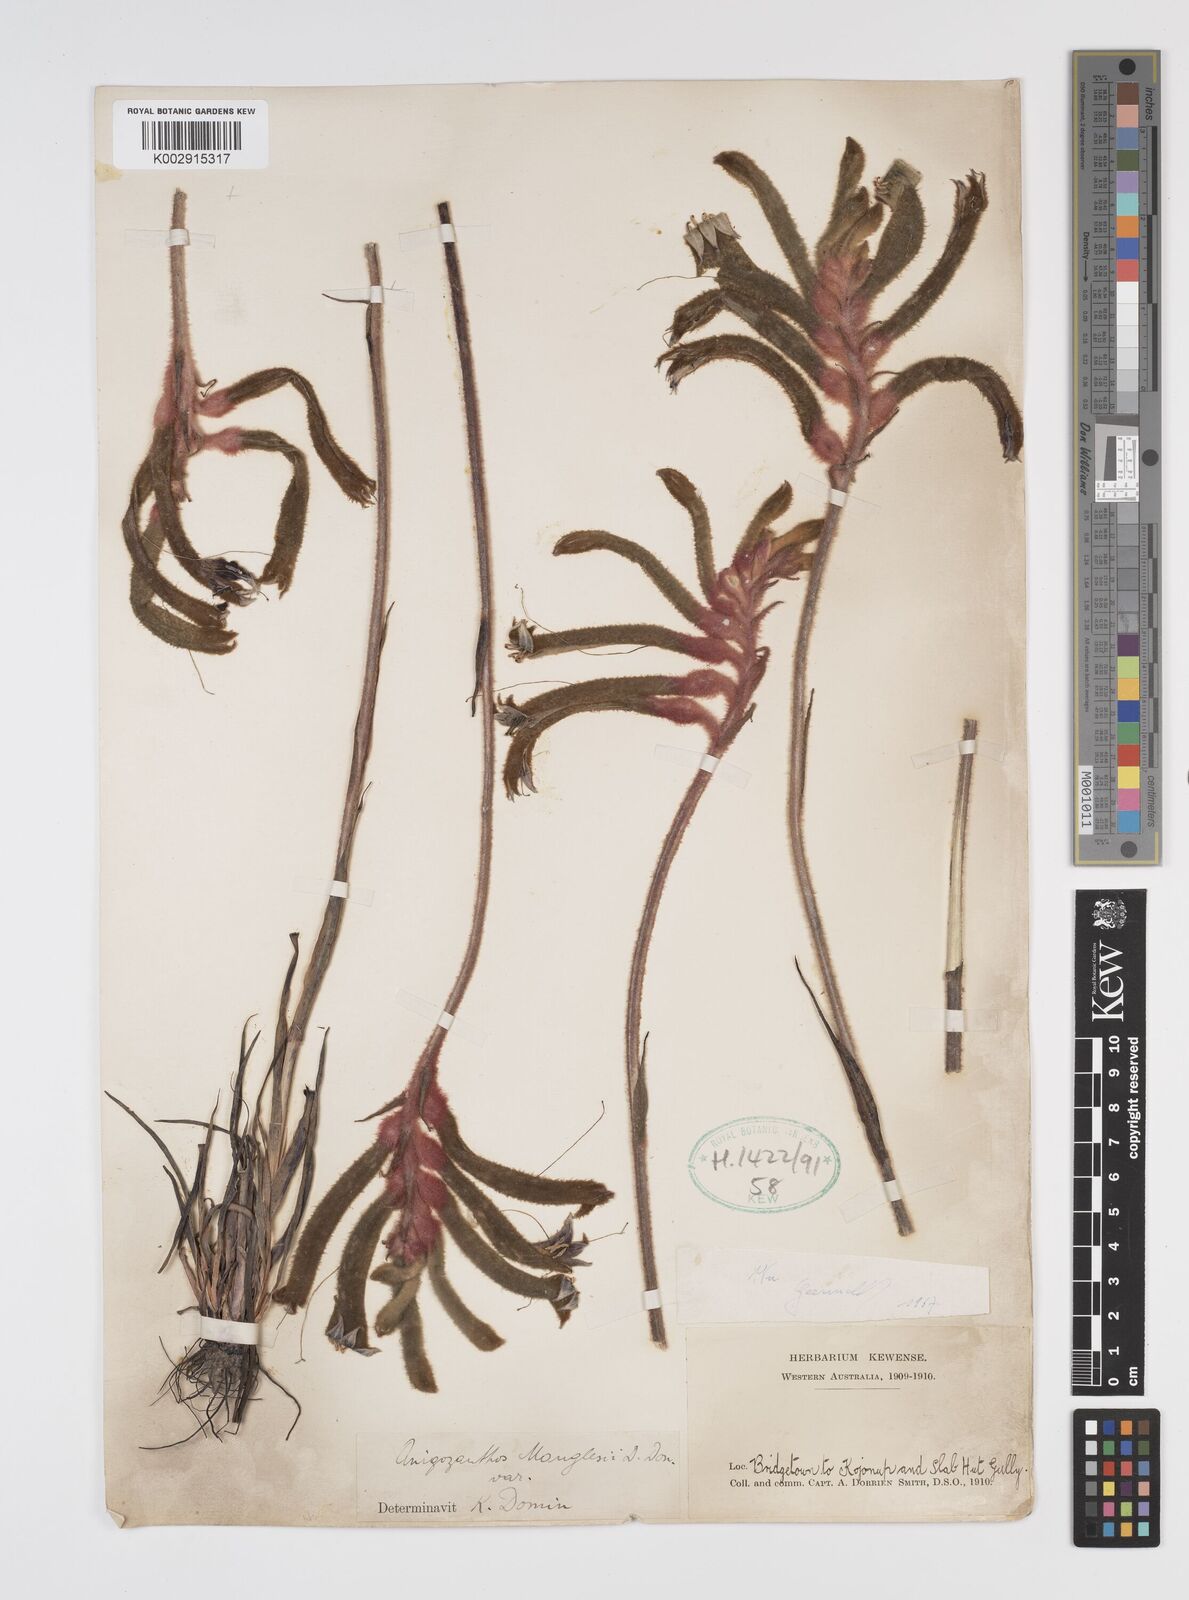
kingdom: Plantae
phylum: Tracheophyta
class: Liliopsida
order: Commelinales
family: Haemodoraceae
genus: Anigozanthos
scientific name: Anigozanthos manglesii
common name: Mangles's kangaroo-paw
